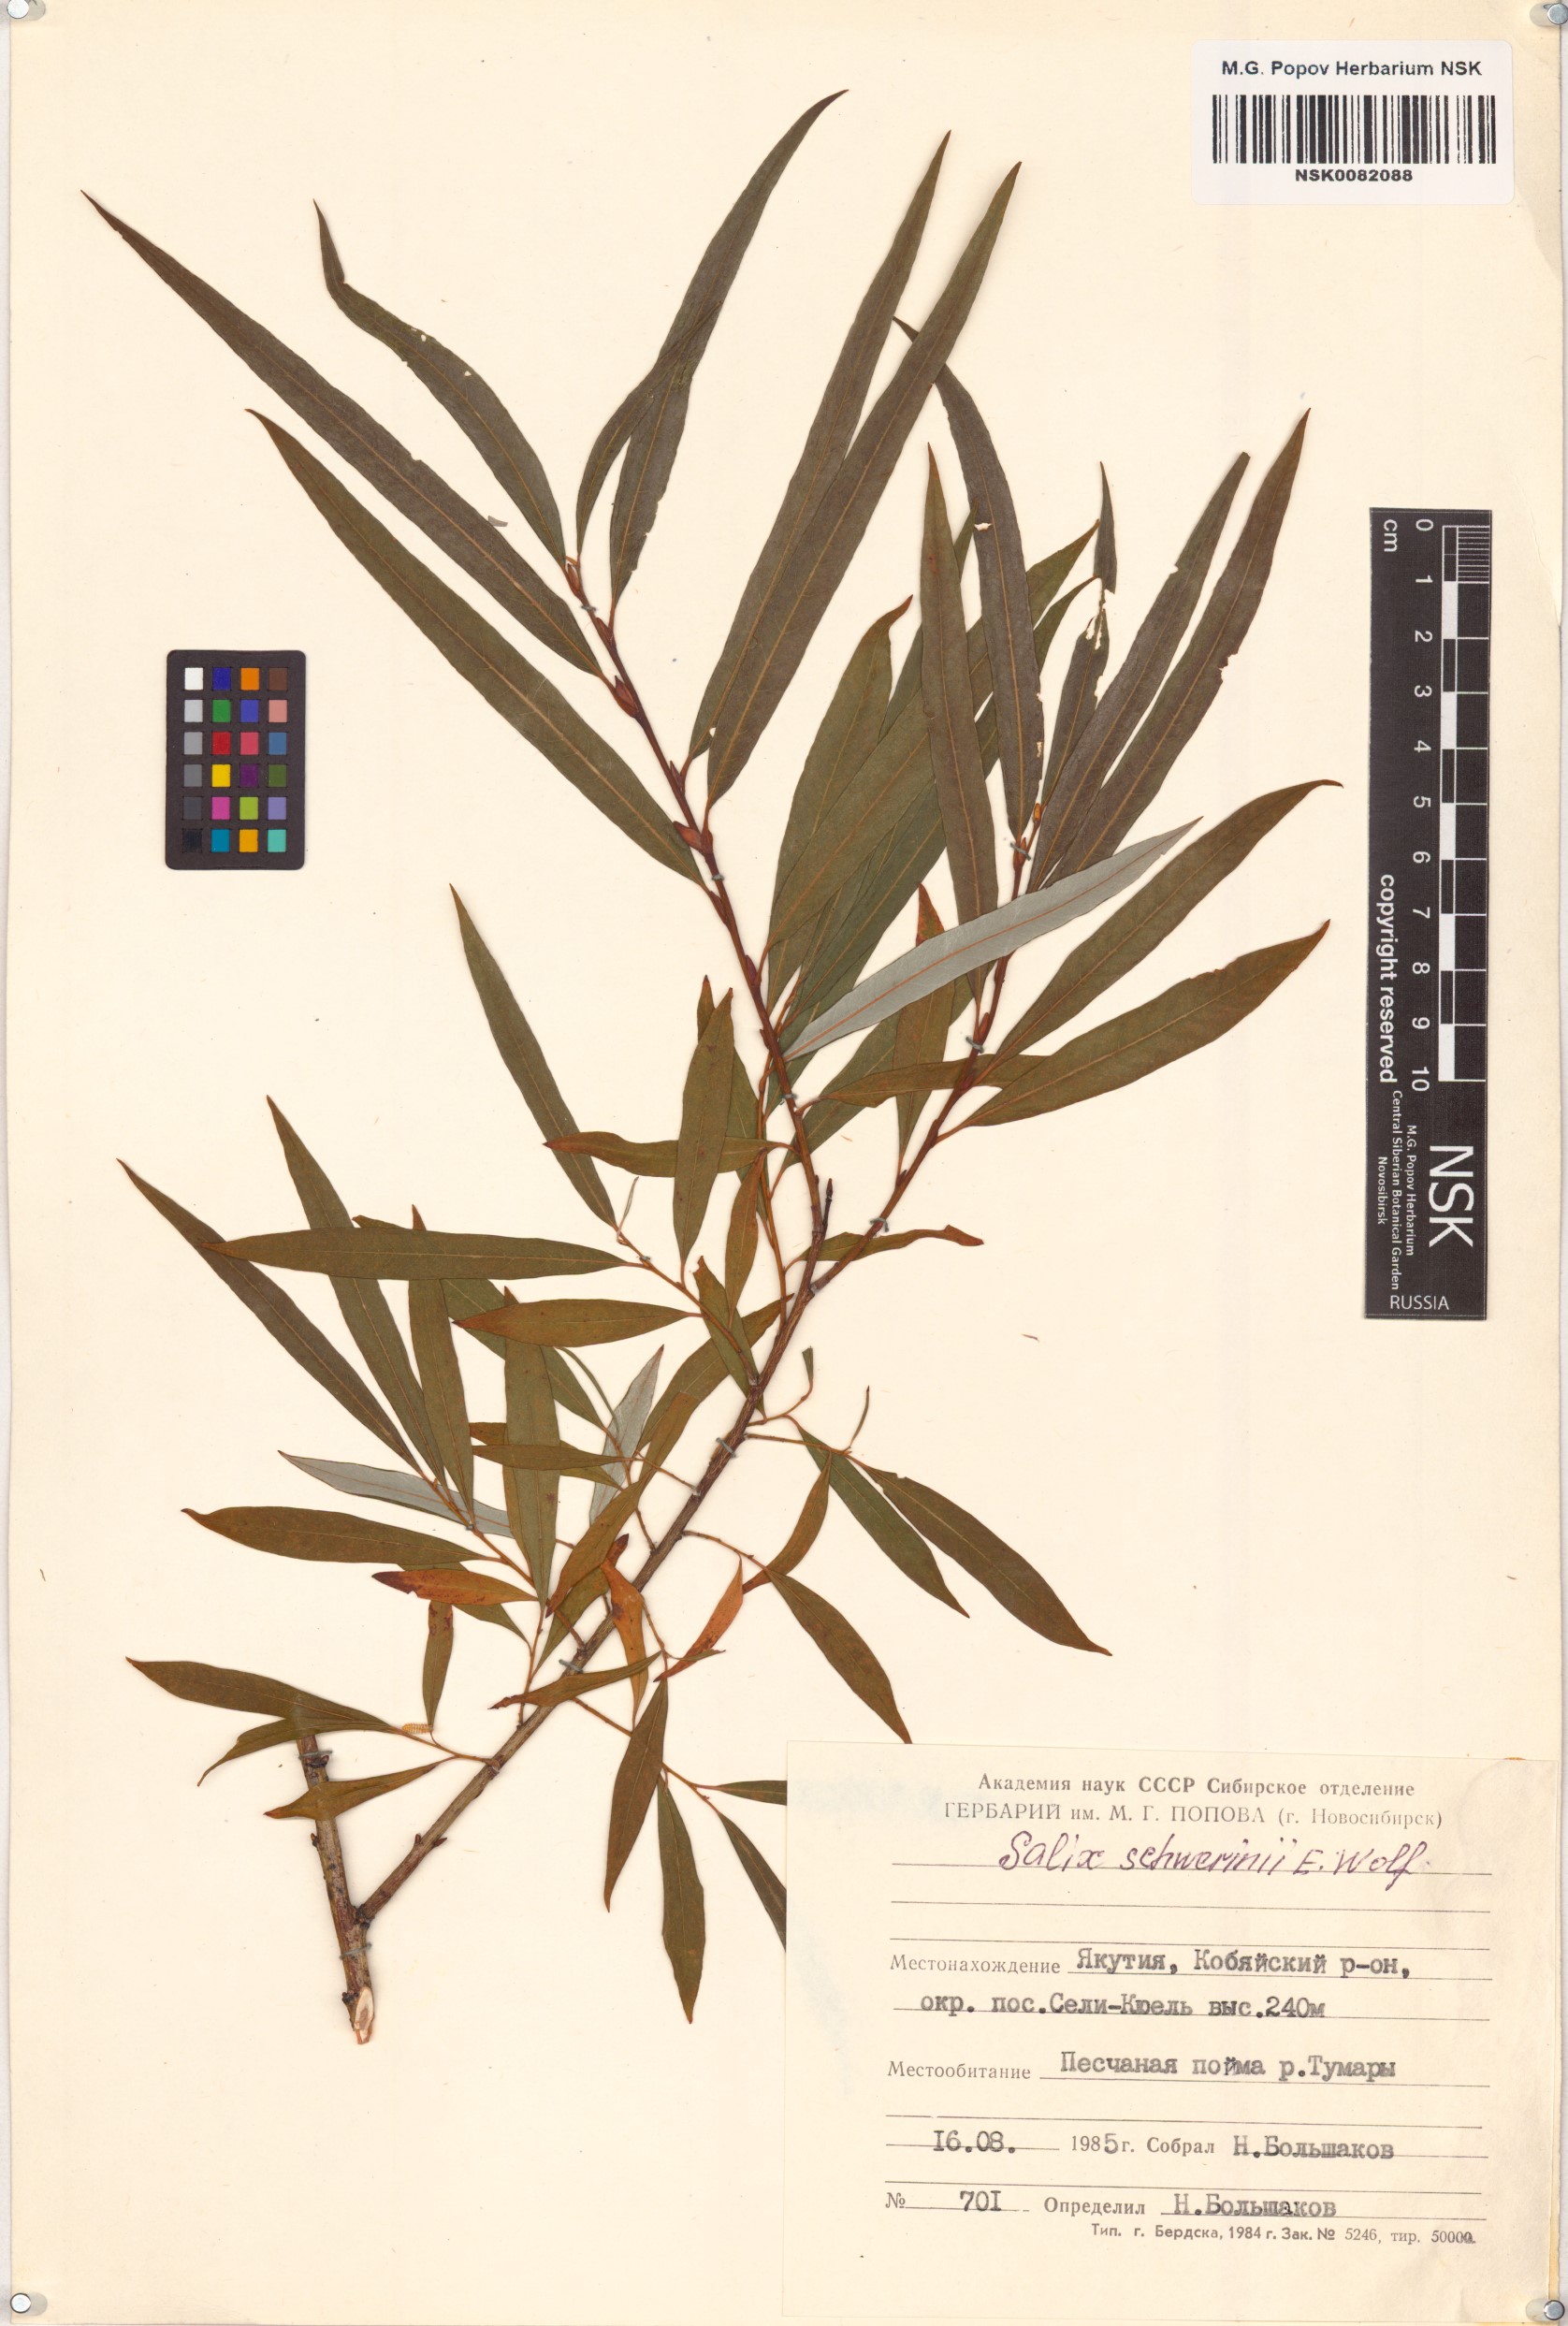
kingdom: Plantae
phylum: Tracheophyta
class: Magnoliopsida
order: Malpighiales
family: Salicaceae
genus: Salix
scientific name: Salix schwerinii
